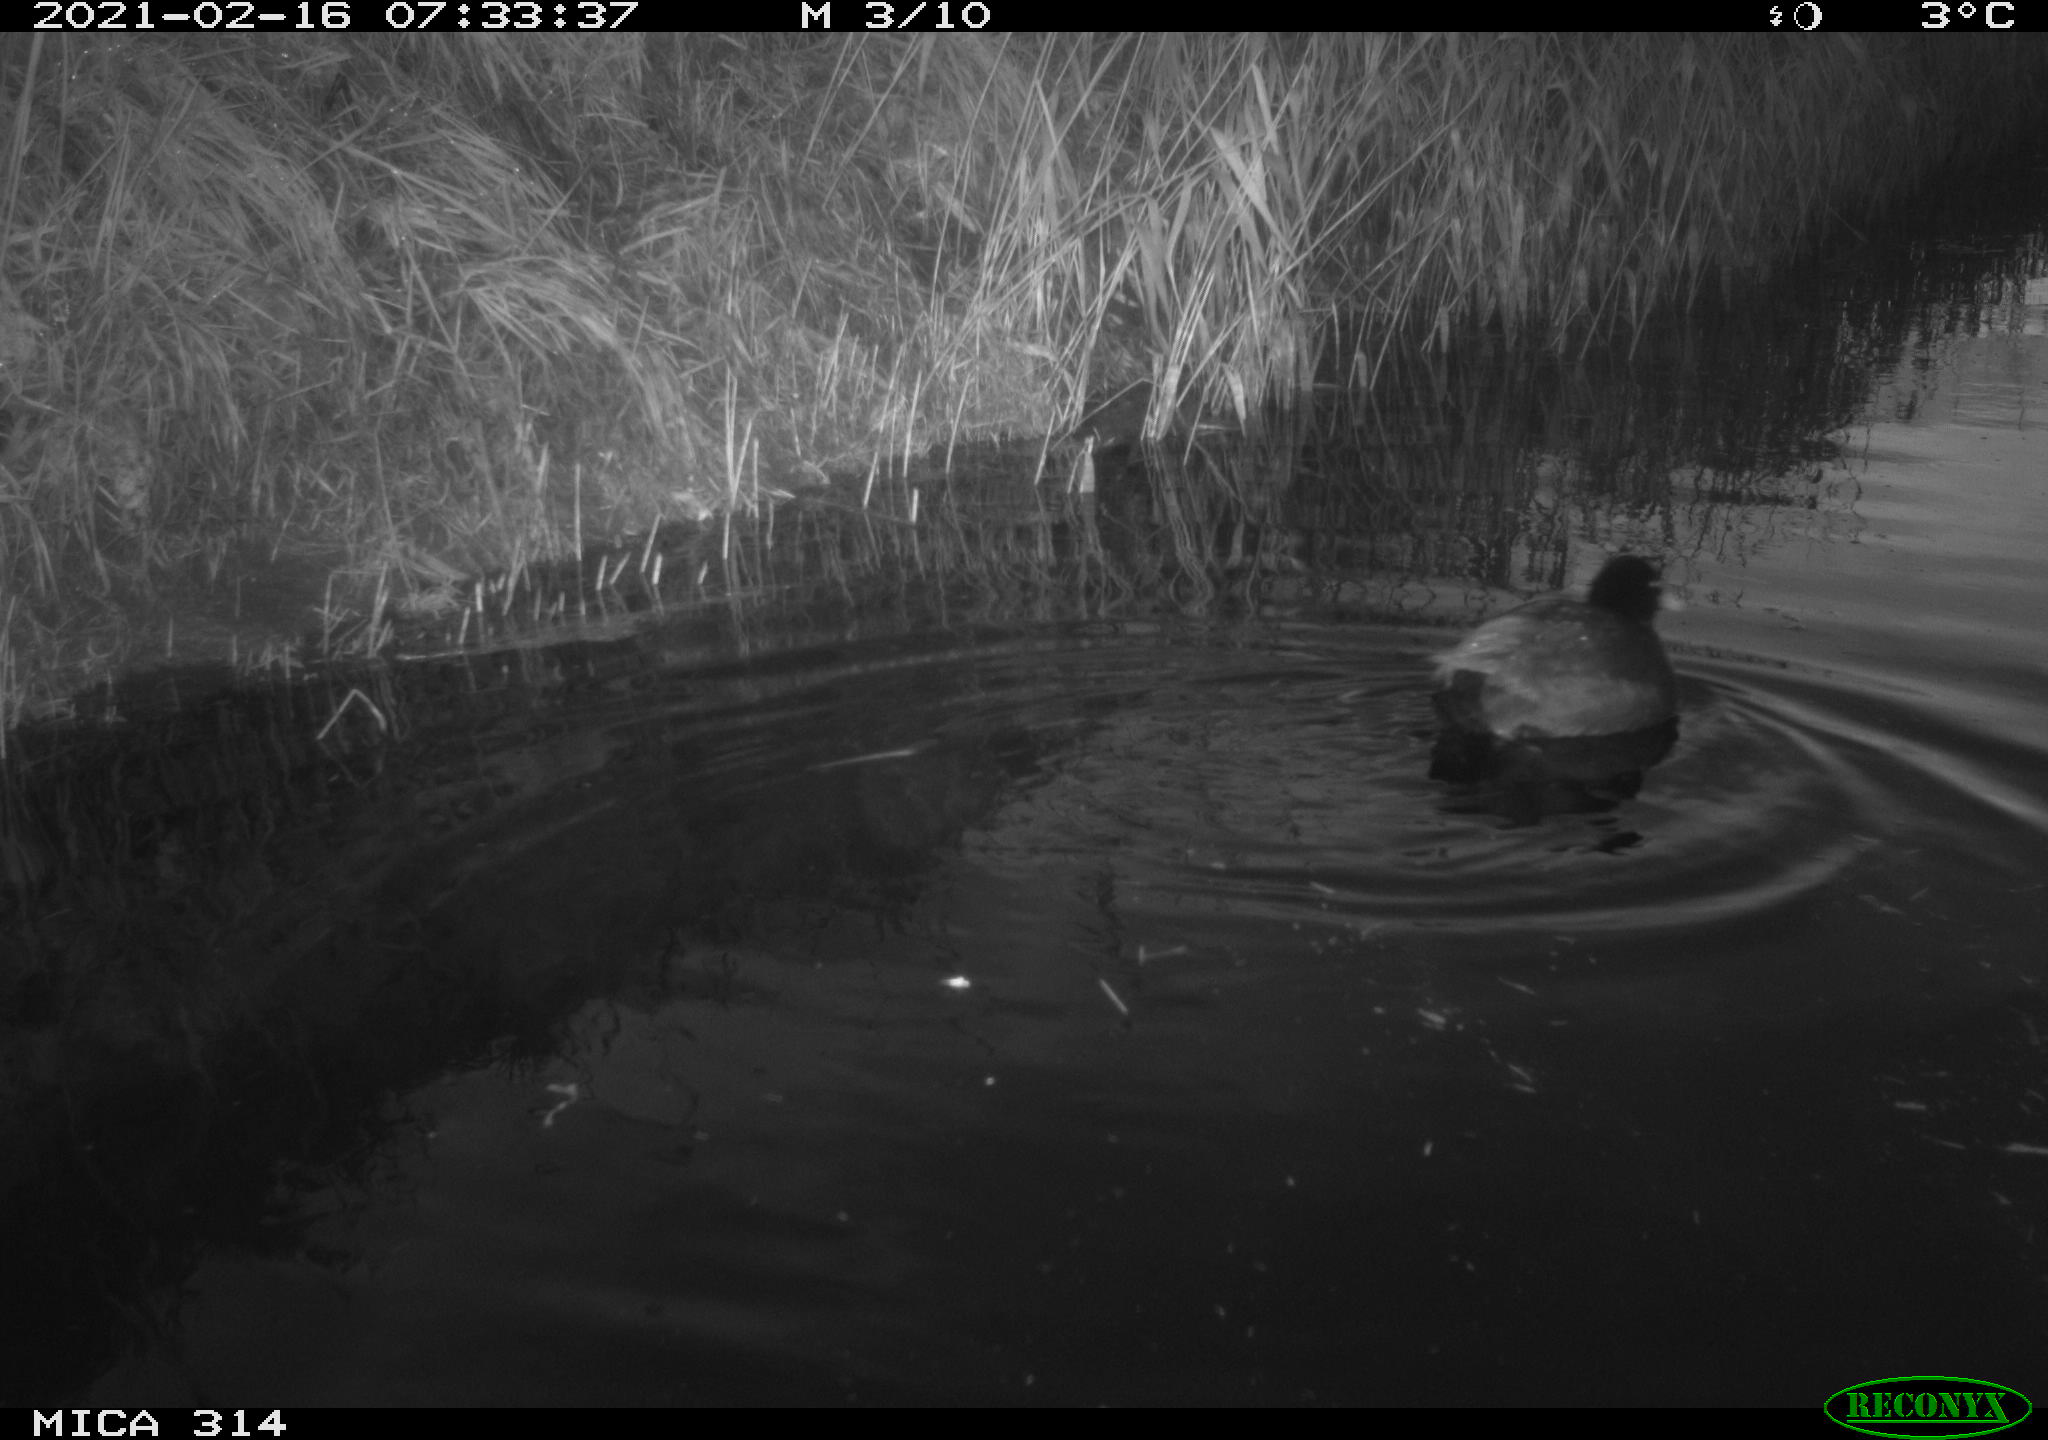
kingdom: Animalia
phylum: Chordata
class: Aves
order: Gruiformes
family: Rallidae
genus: Fulica
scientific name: Fulica atra
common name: Eurasian coot
